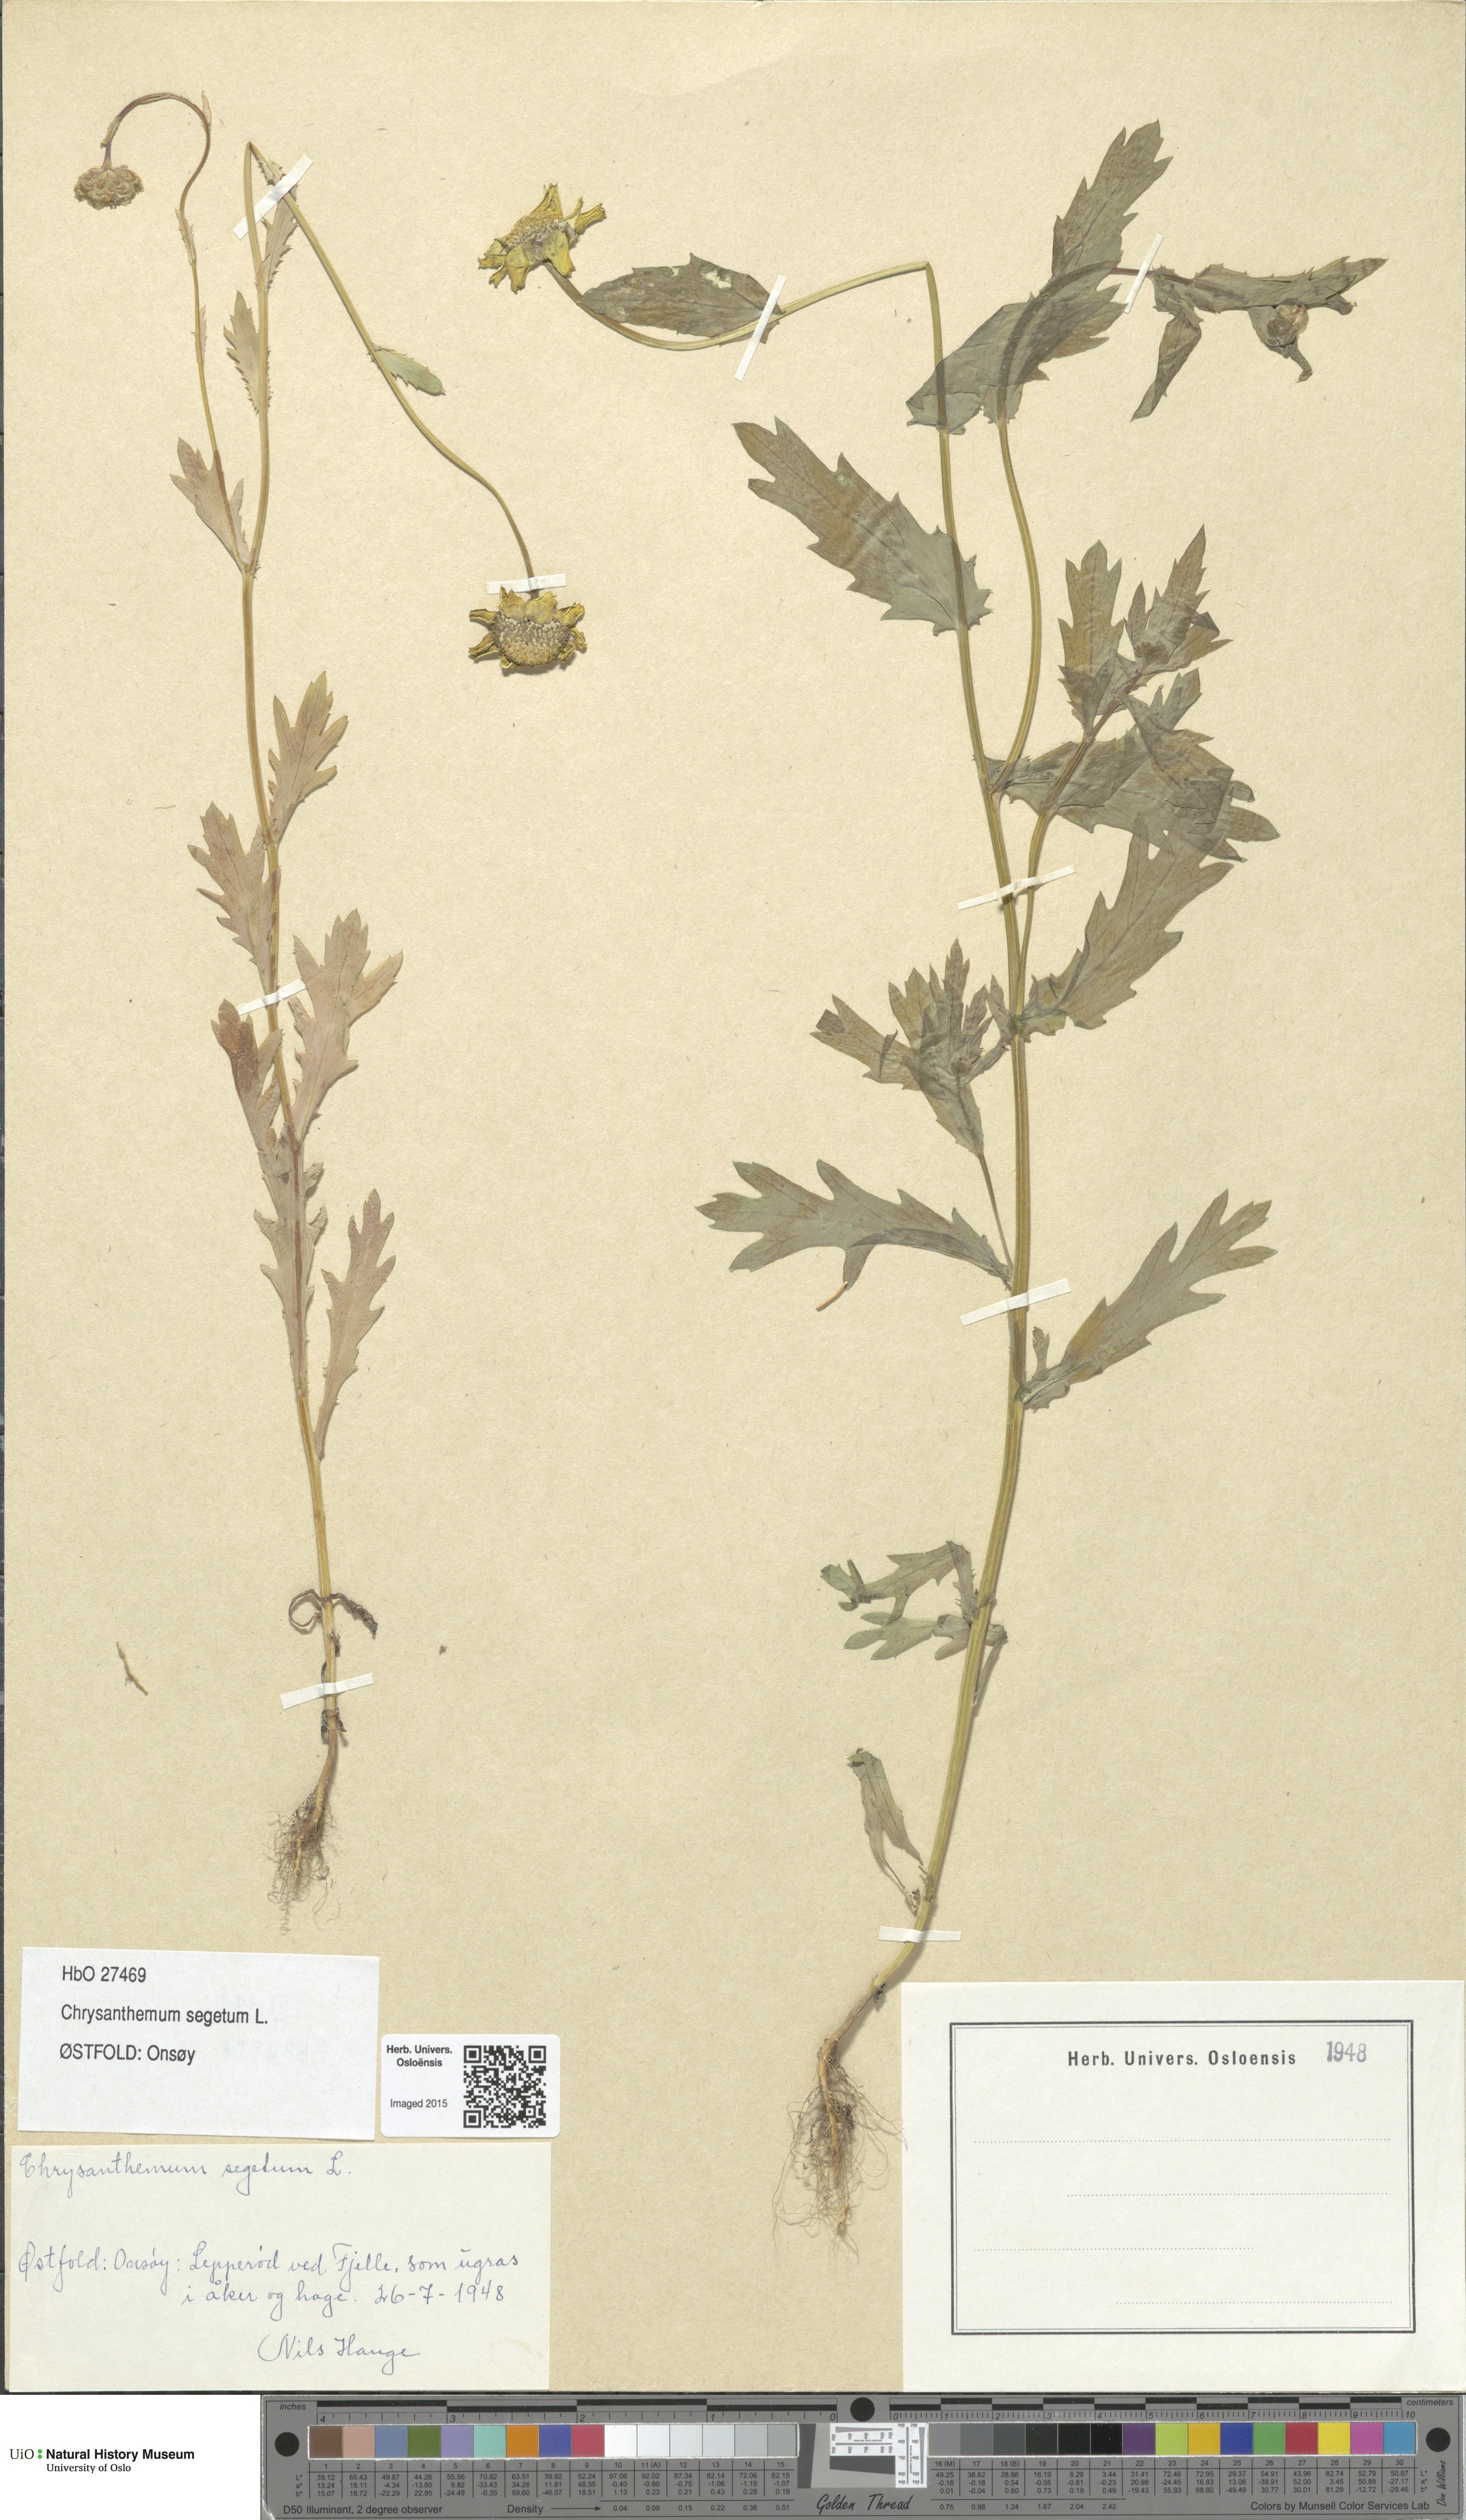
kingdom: Plantae
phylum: Tracheophyta
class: Magnoliopsida
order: Asterales
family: Asteraceae
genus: Glebionis
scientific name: Glebionis segetum
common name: Corndaisy
